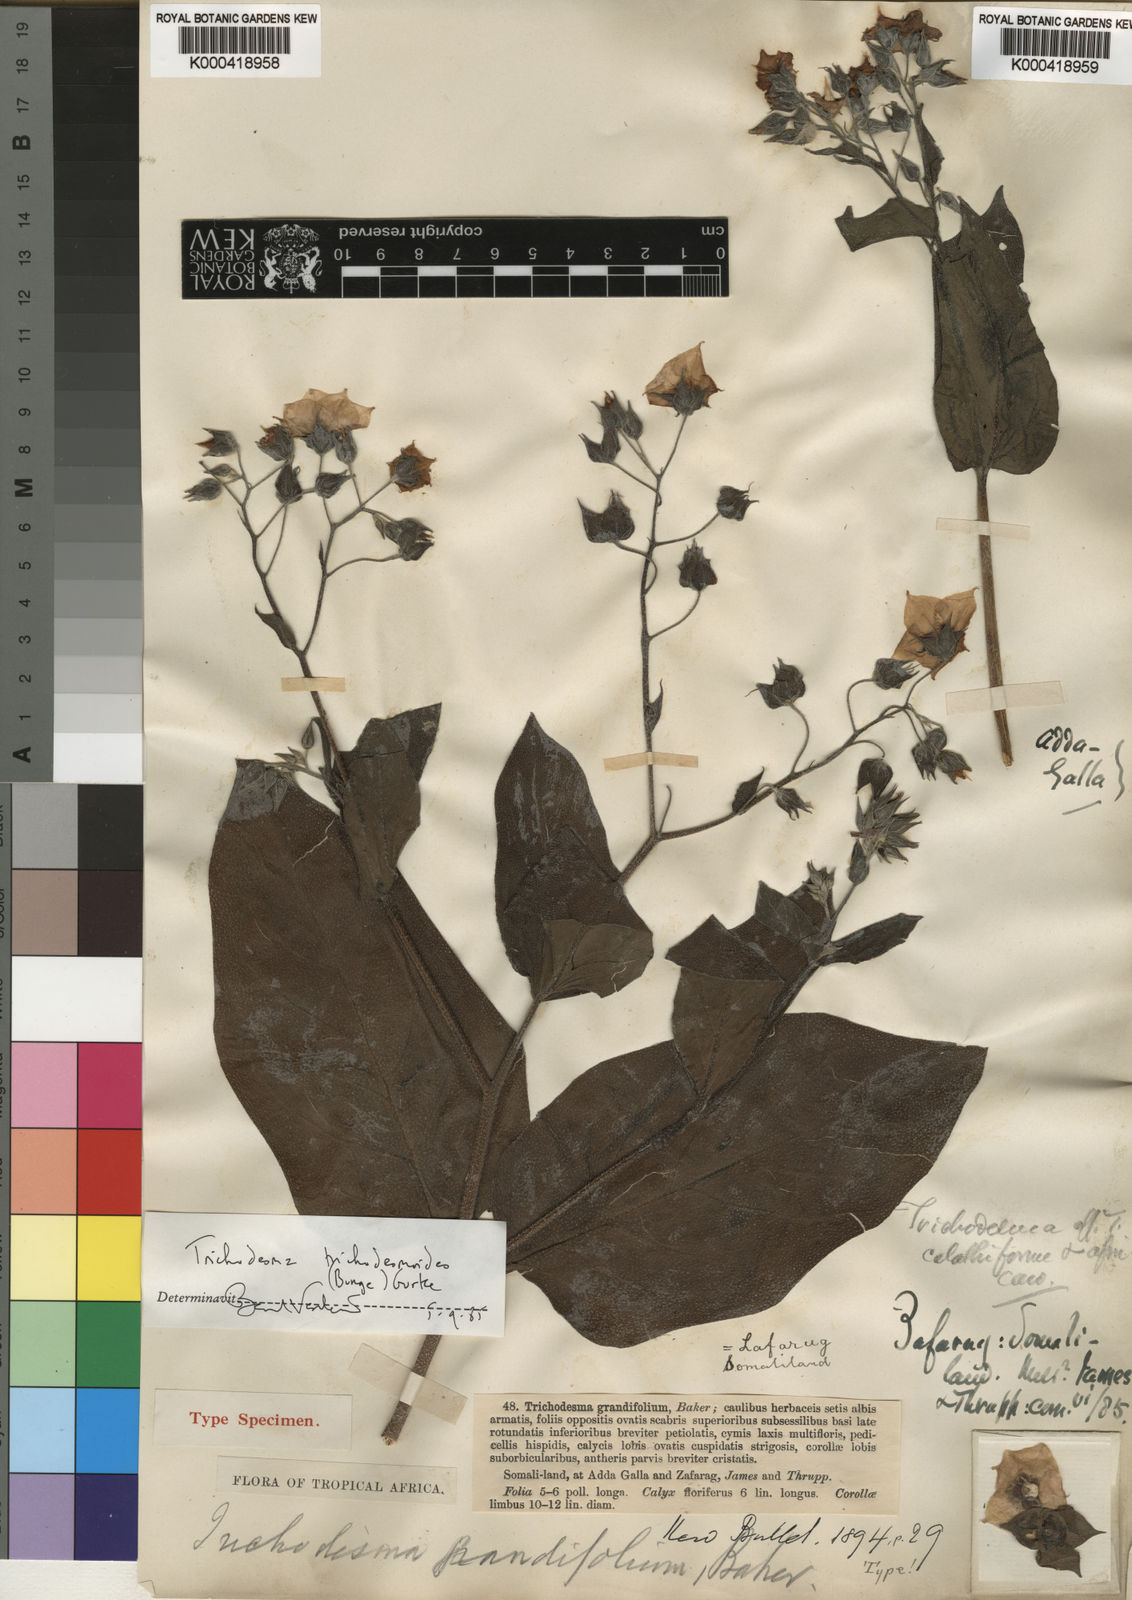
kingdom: Plantae
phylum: Tracheophyta
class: Magnoliopsida
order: Boraginales
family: Boraginaceae
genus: Trichodesma
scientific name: Trichodesma
